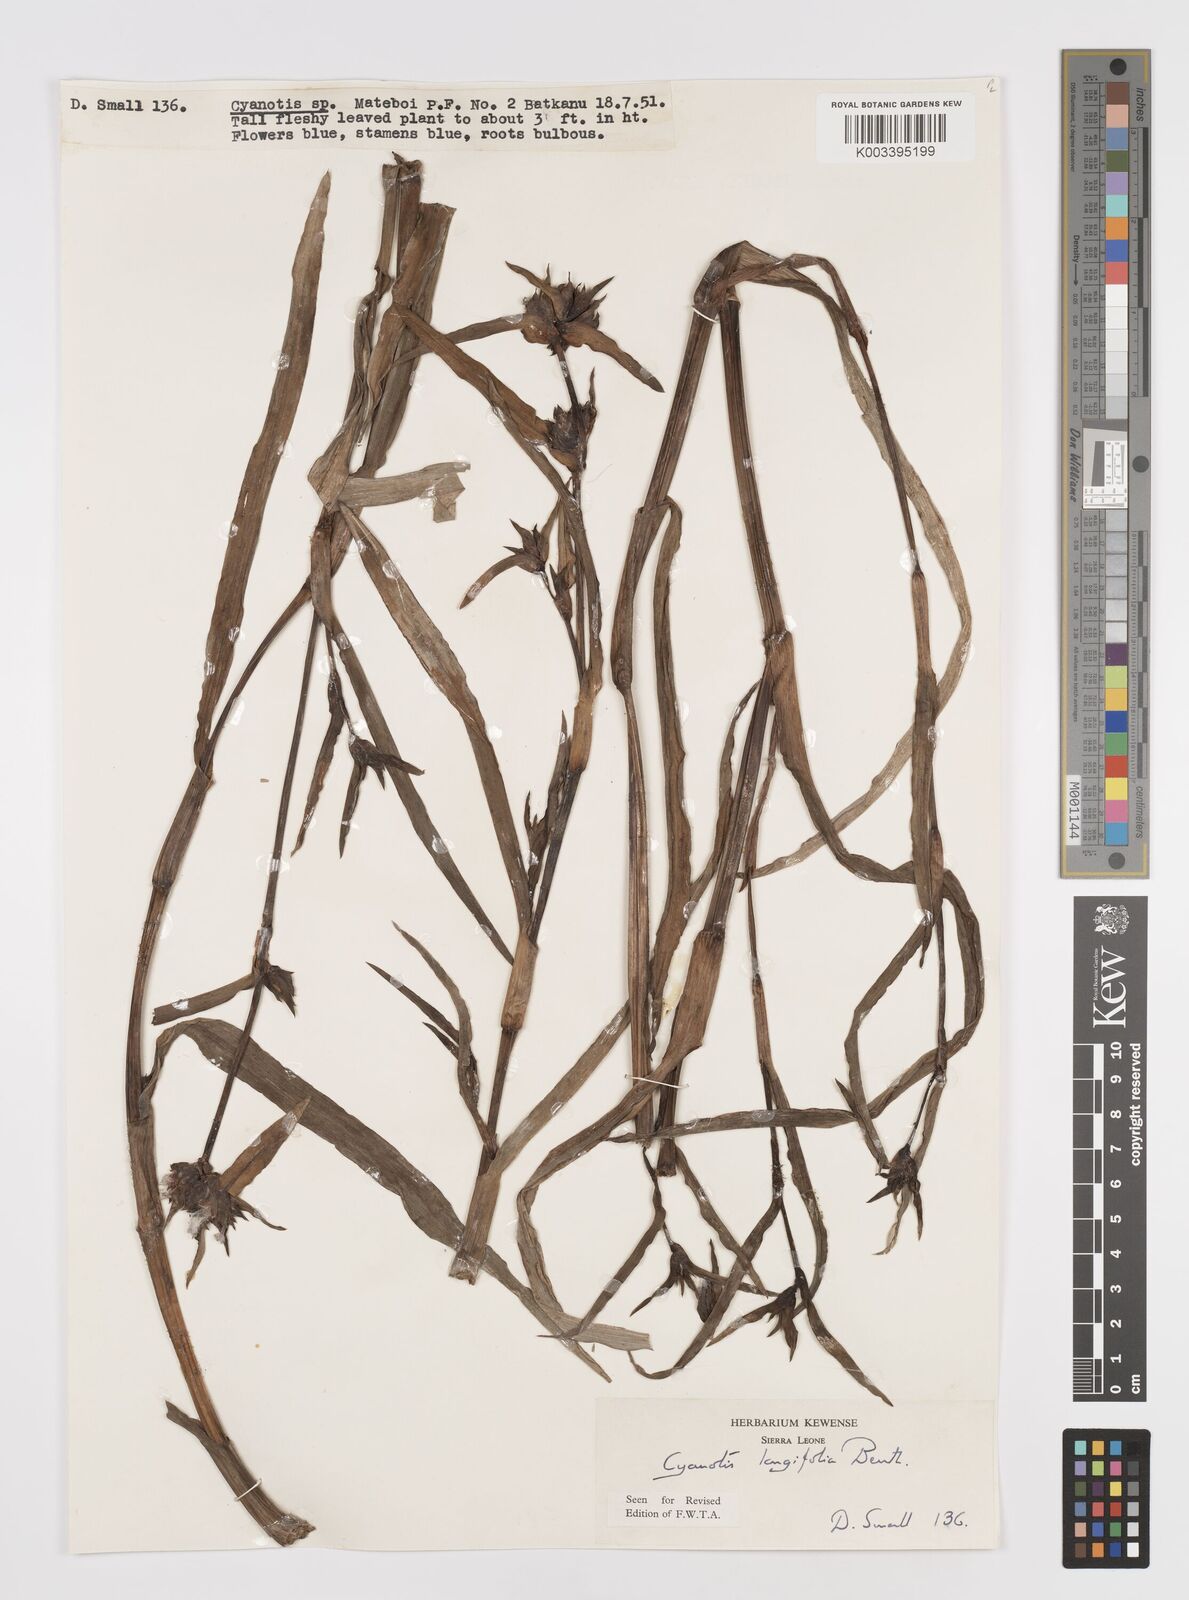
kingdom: Plantae
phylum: Tracheophyta
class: Liliopsida
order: Commelinales
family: Commelinaceae
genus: Cyanotis
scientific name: Cyanotis
